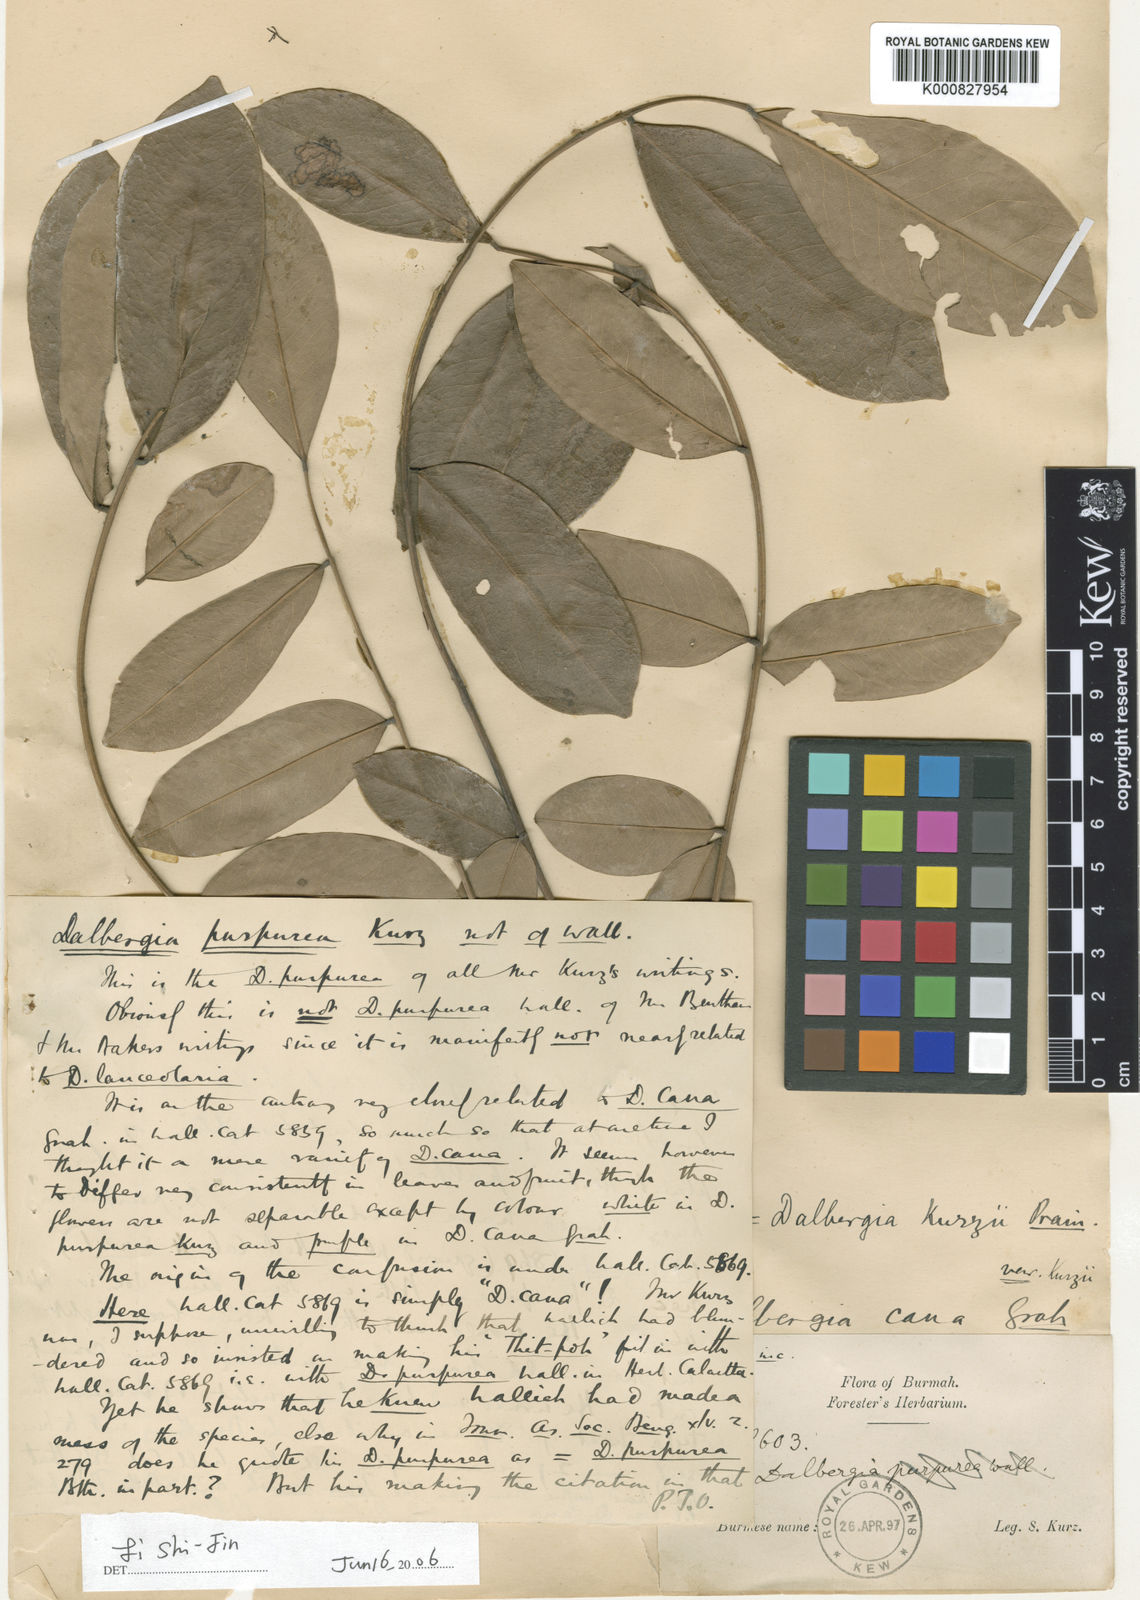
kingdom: Plantae
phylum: Tracheophyta
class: Magnoliopsida
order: Fabales
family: Fabaceae
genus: Dalbergia
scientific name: Dalbergia cana
